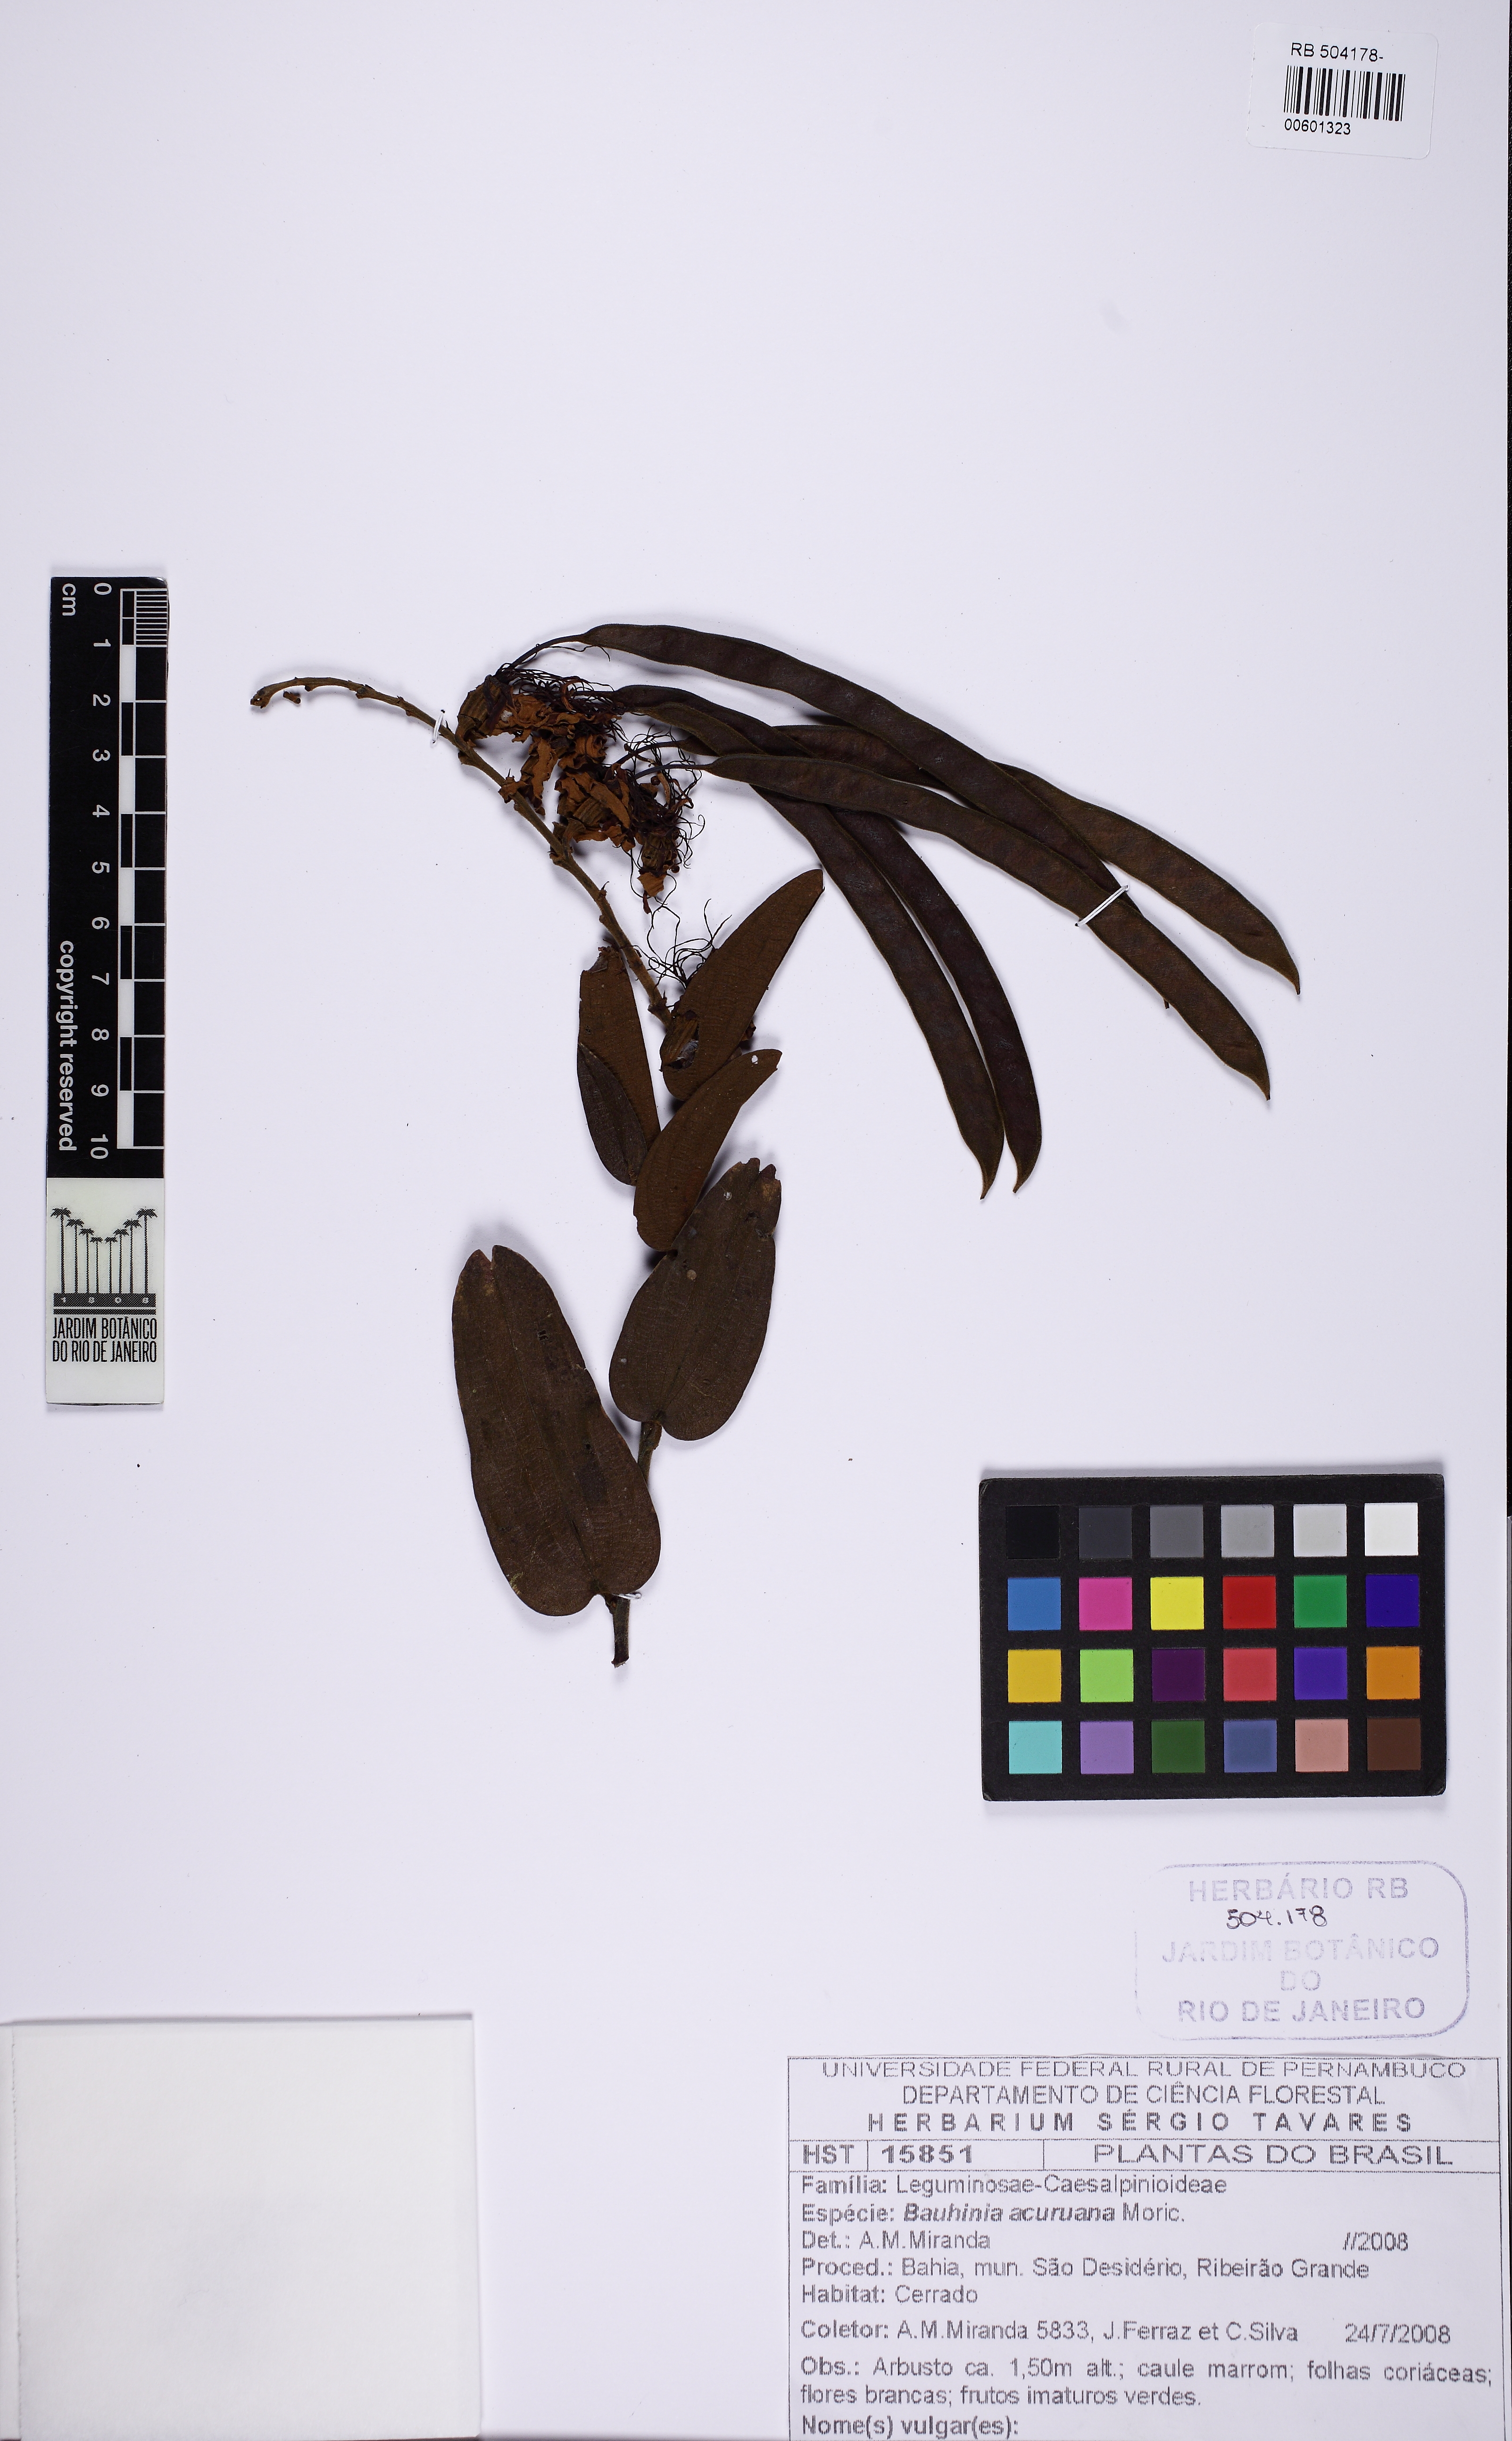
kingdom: Plantae
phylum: Tracheophyta
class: Magnoliopsida
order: Fabales
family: Fabaceae
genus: Bauhinia
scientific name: Bauhinia acuruana
